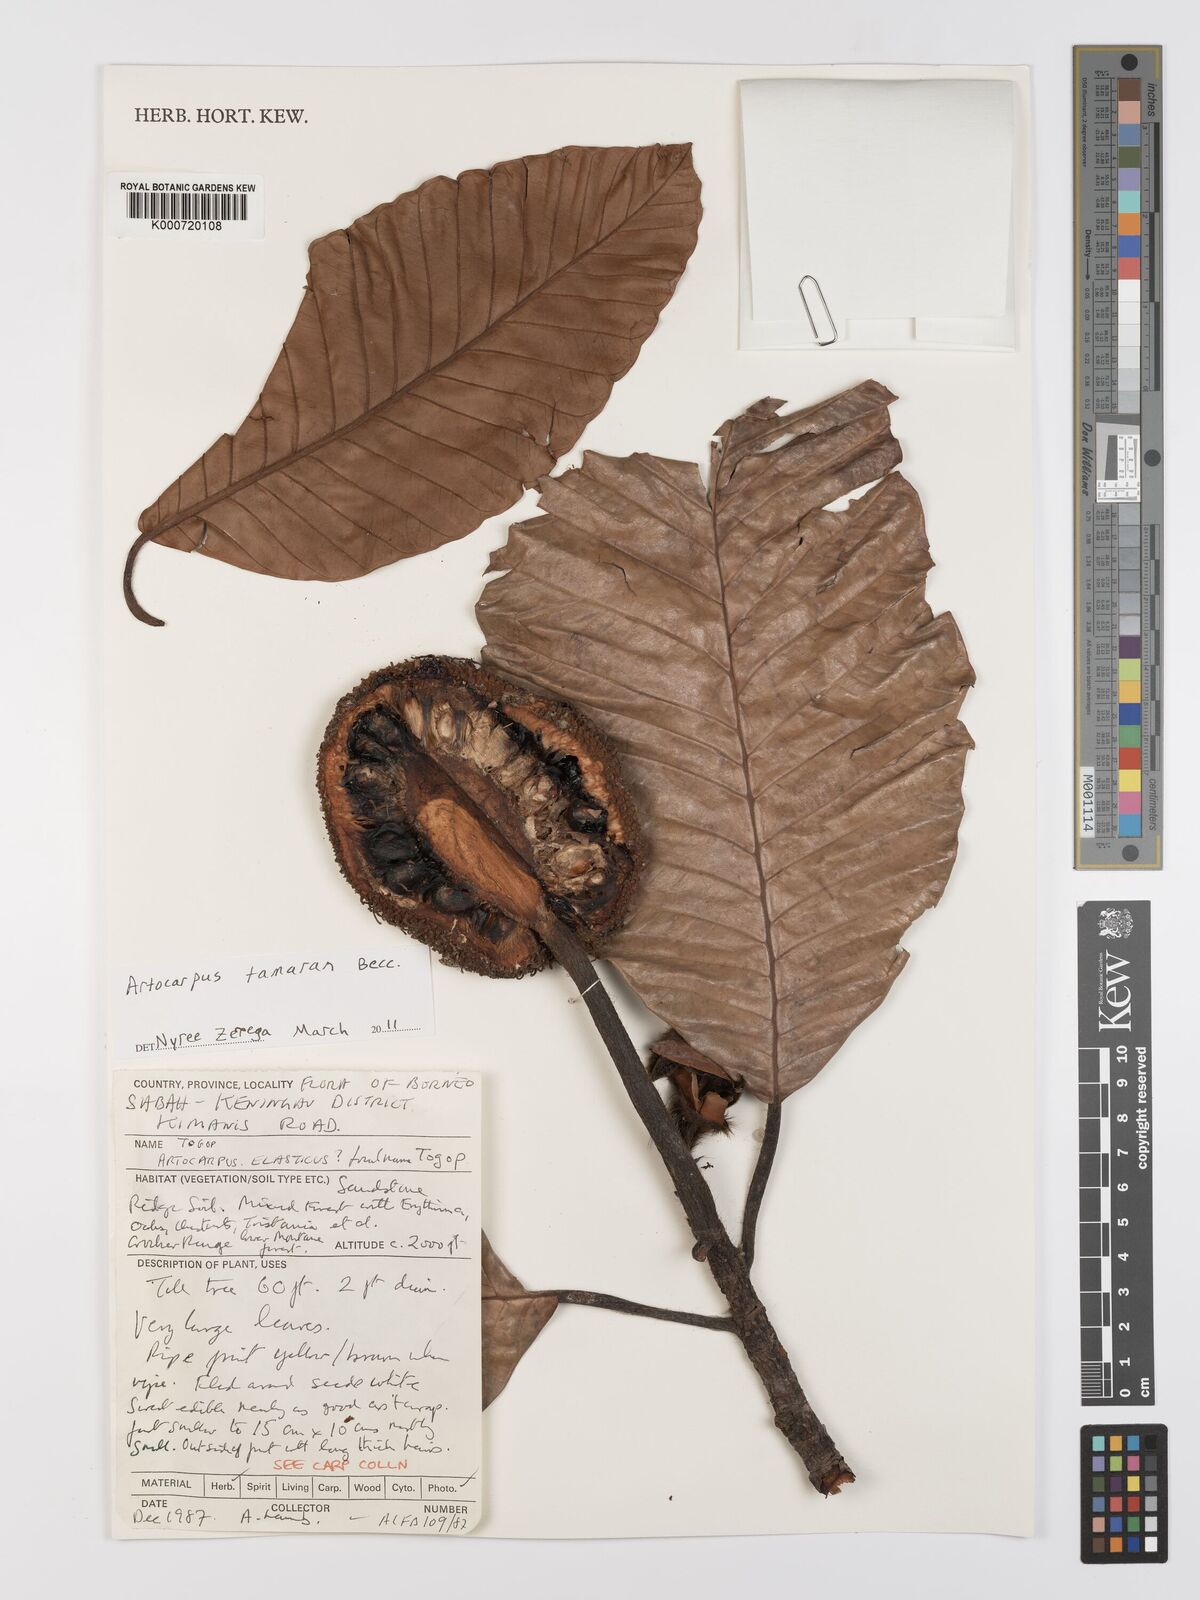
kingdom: Plantae
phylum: Tracheophyta
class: Magnoliopsida
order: Rosales
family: Moraceae
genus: Artocarpus
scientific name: Artocarpus tamaran
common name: Elephant jack
